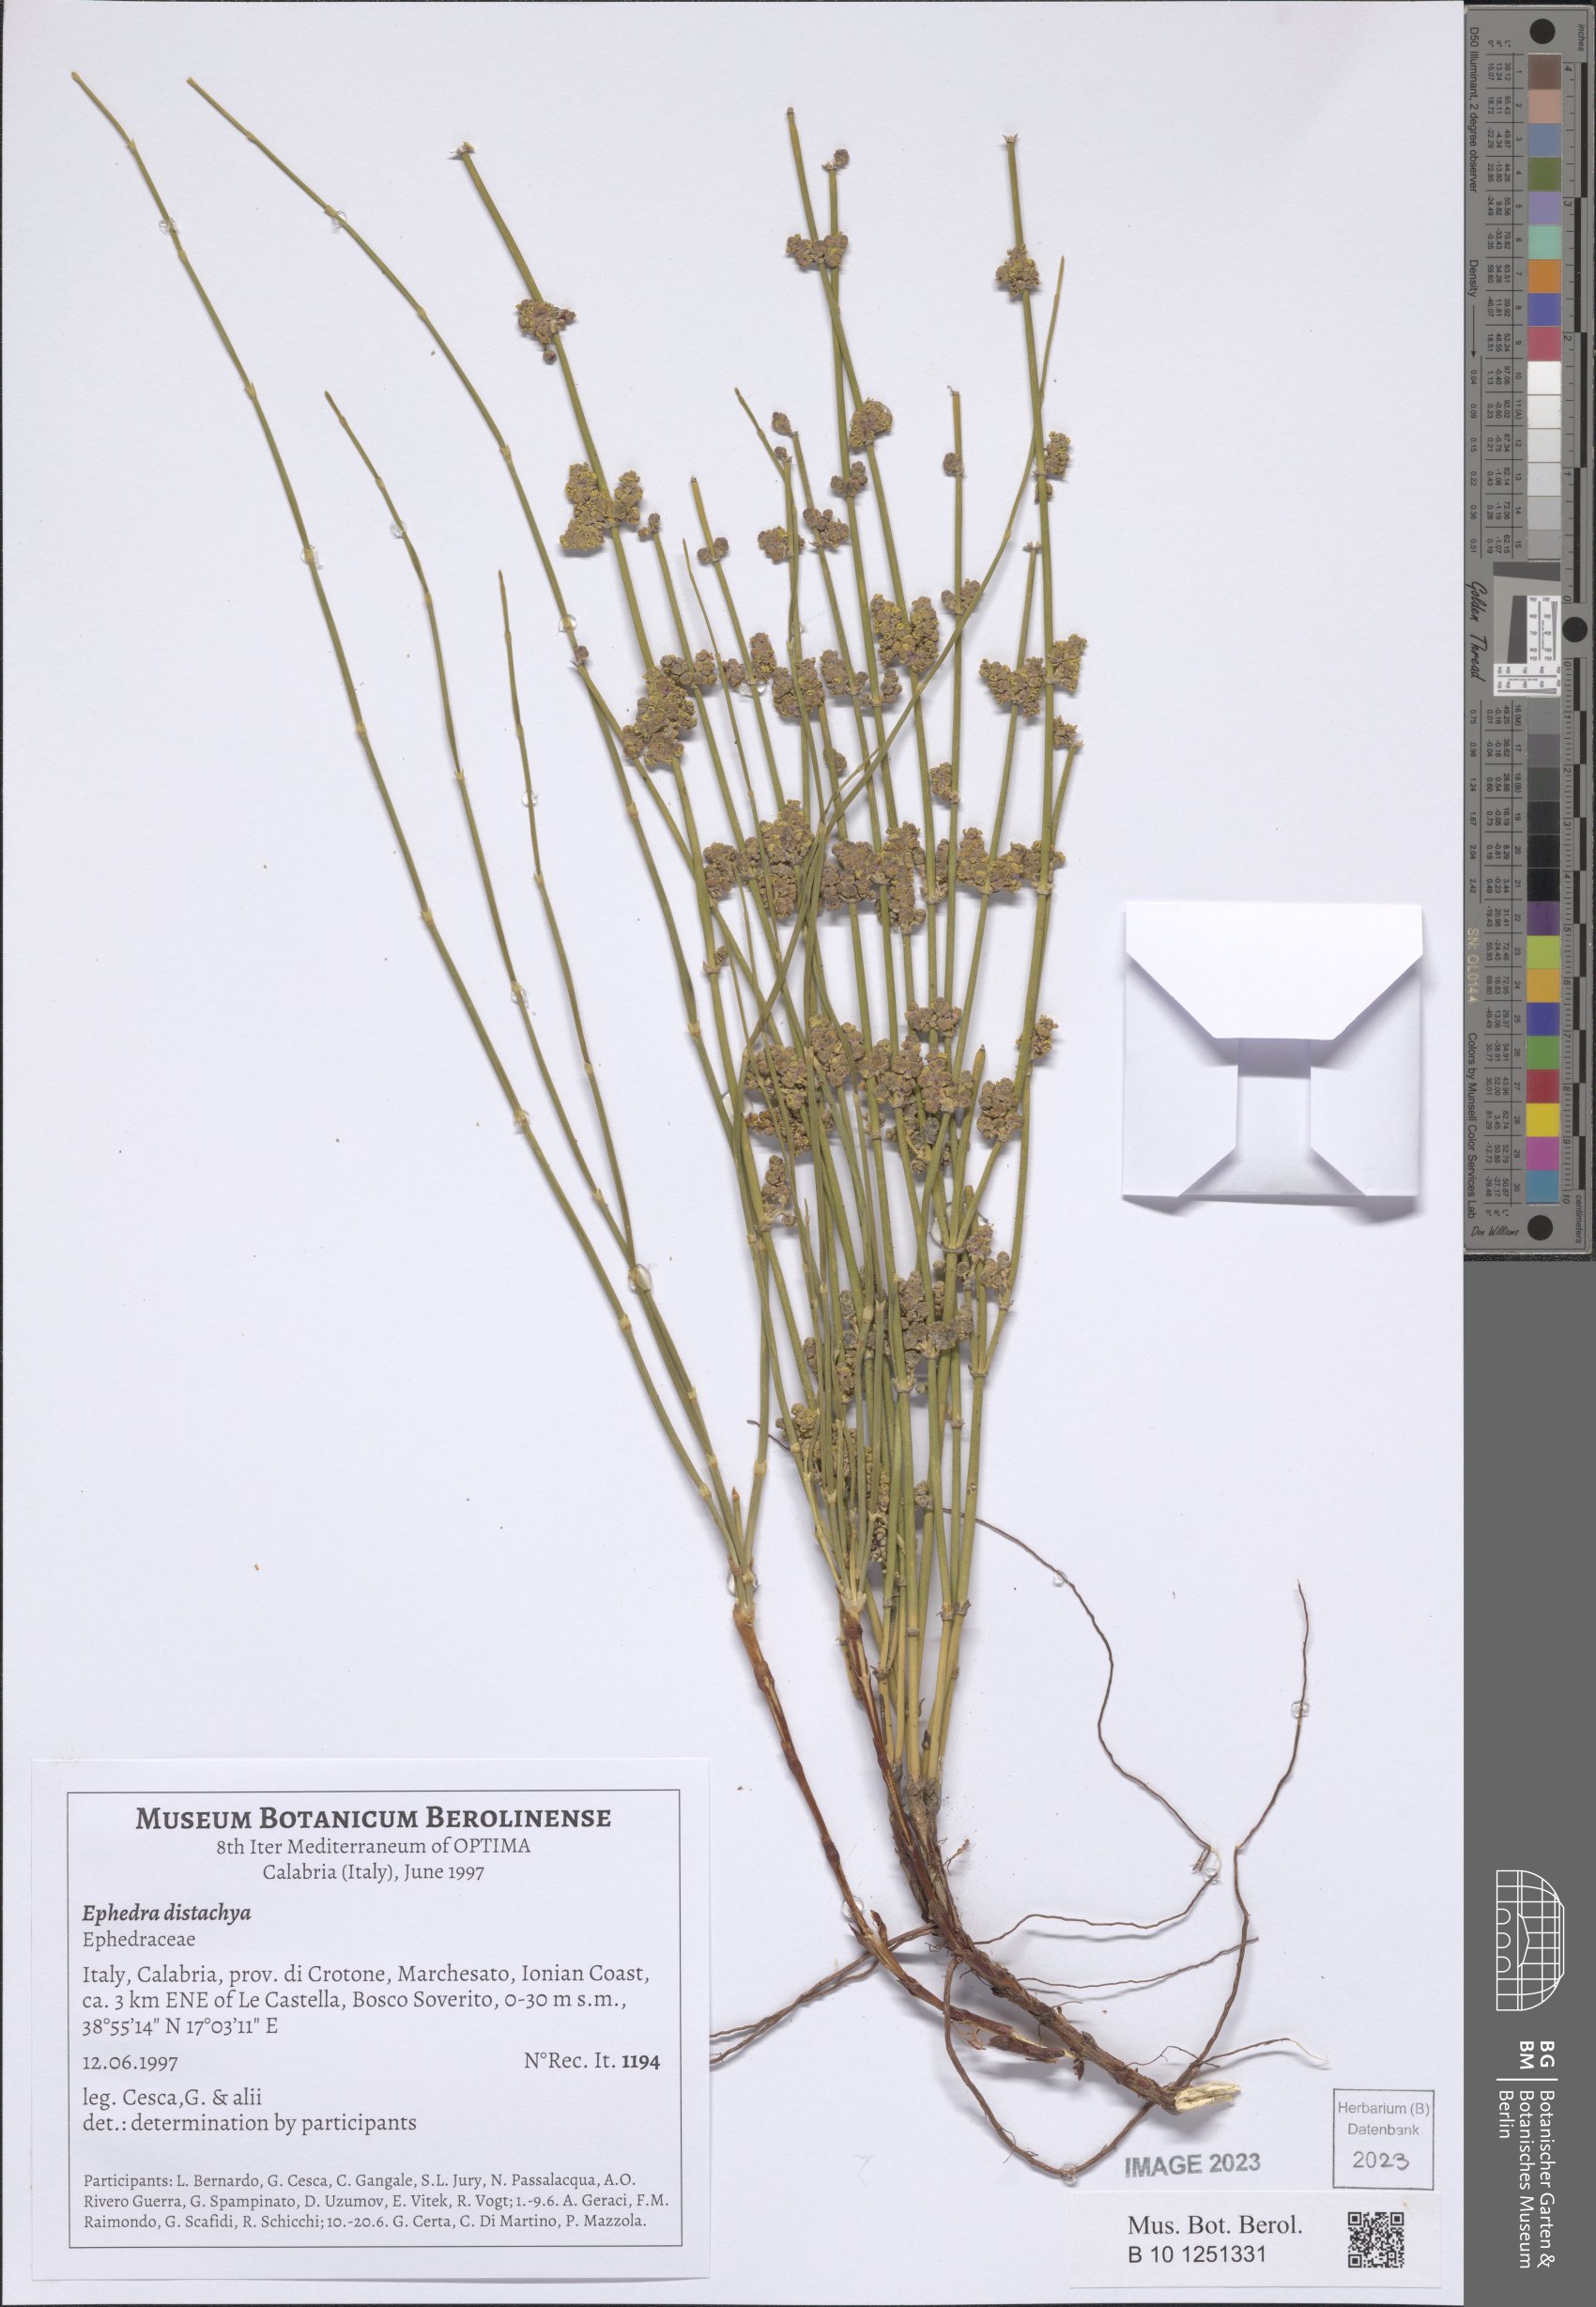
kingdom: Plantae
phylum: Tracheophyta
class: Gnetopsida
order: Ephedrales
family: Ephedraceae
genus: Ephedra
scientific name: Ephedra distachya
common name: Sea grape
